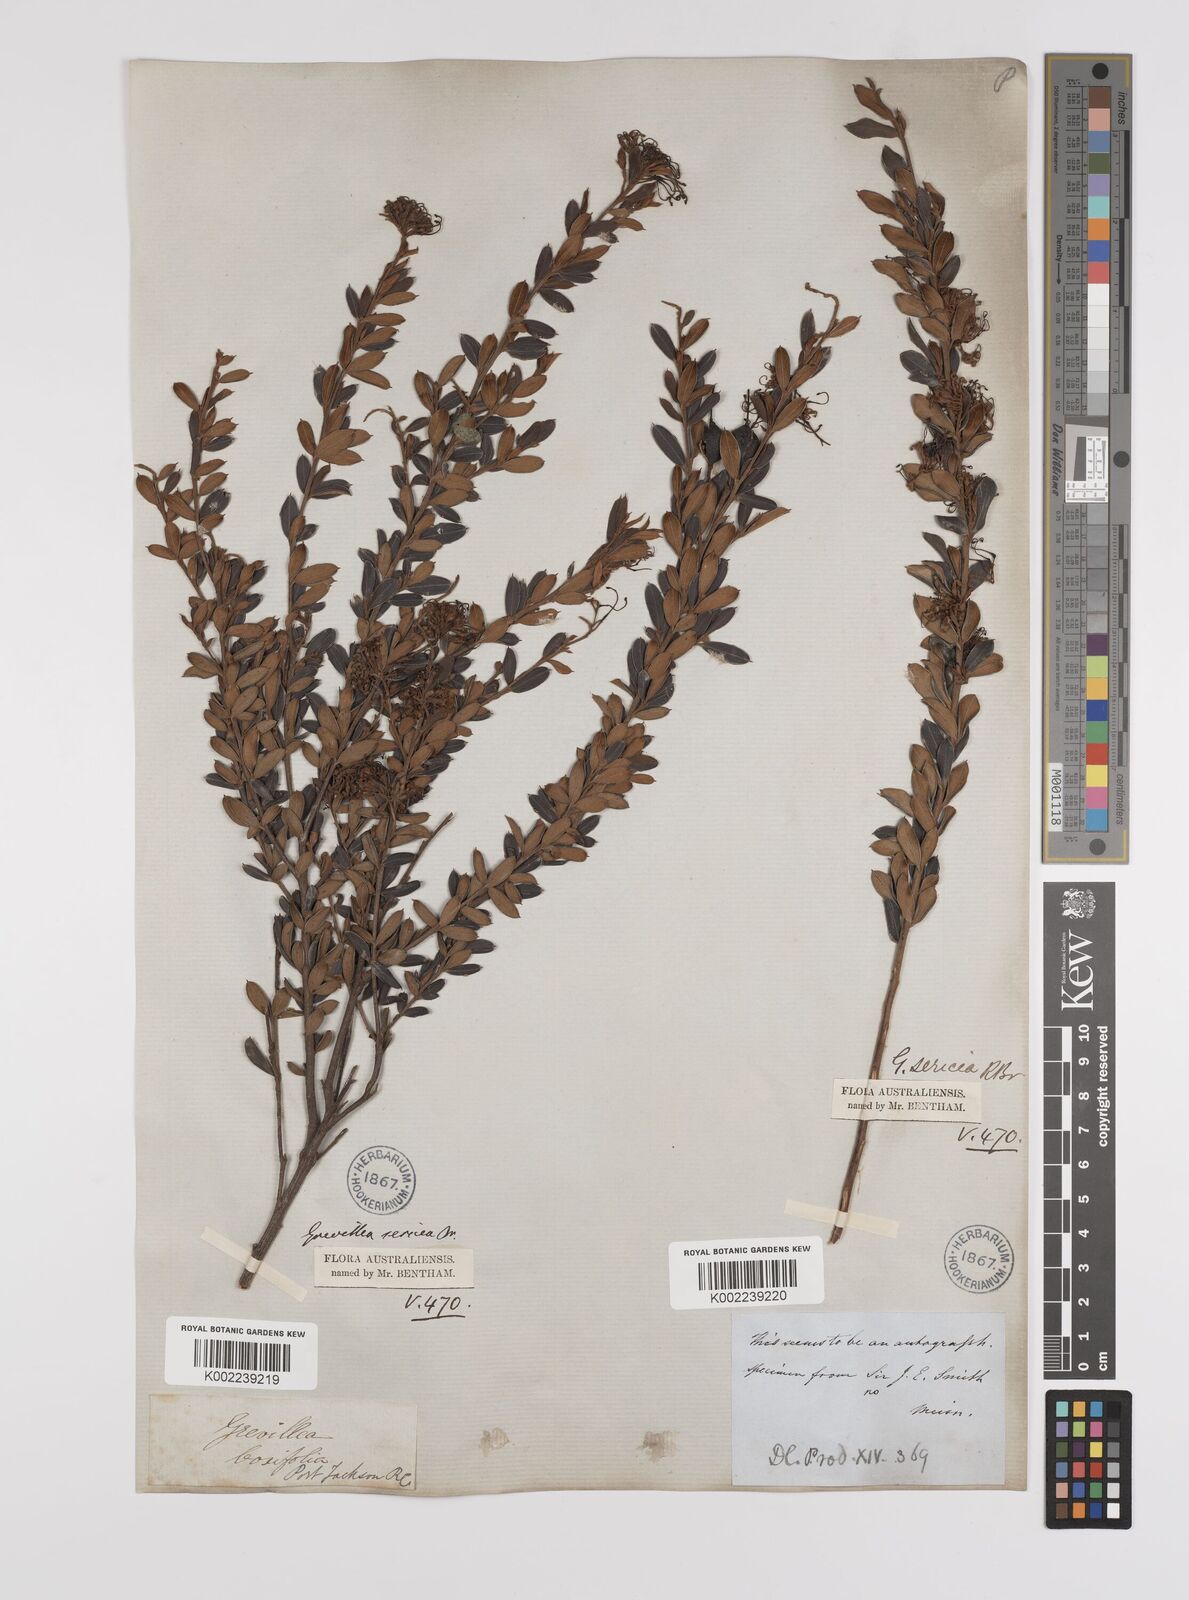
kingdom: Plantae
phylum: Tracheophyta
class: Magnoliopsida
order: Proteales
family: Proteaceae
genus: Grevillea
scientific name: Grevillea sericea
